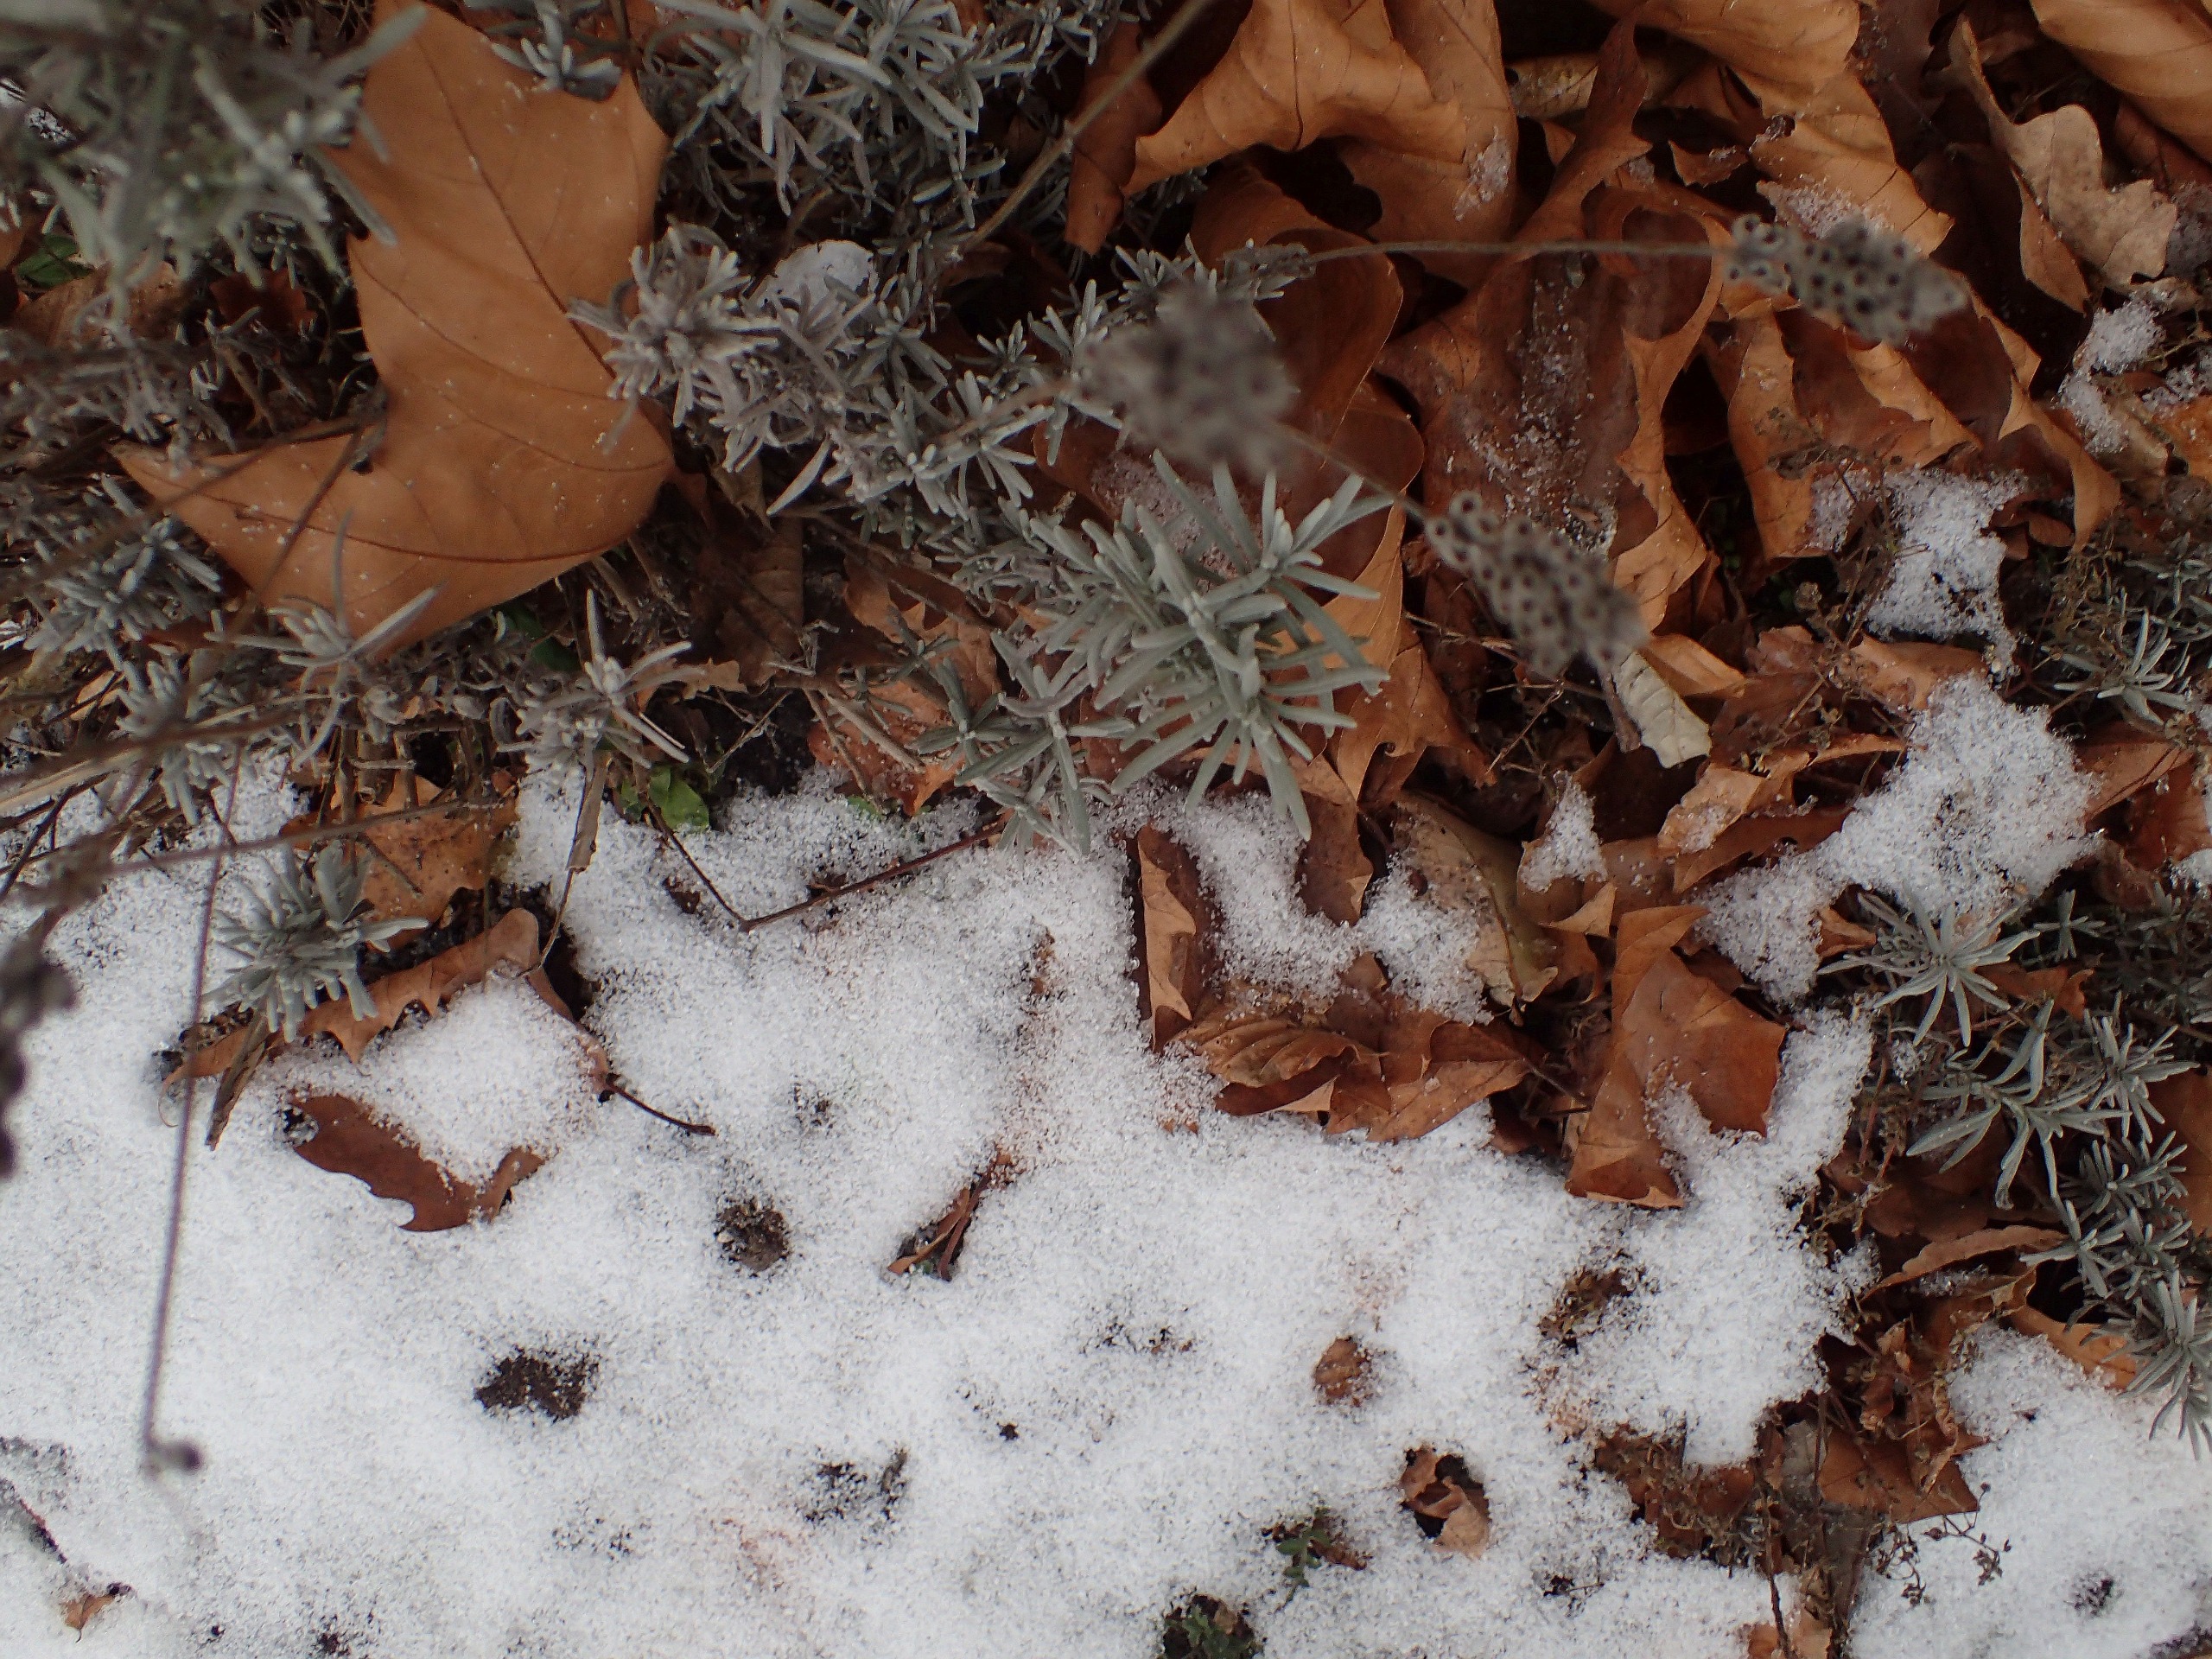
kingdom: Plantae
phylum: Tracheophyta
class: Magnoliopsida
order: Lamiales
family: Lamiaceae
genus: Lavandula
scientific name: Lavandula angustifolia
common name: Ægte lavendel
